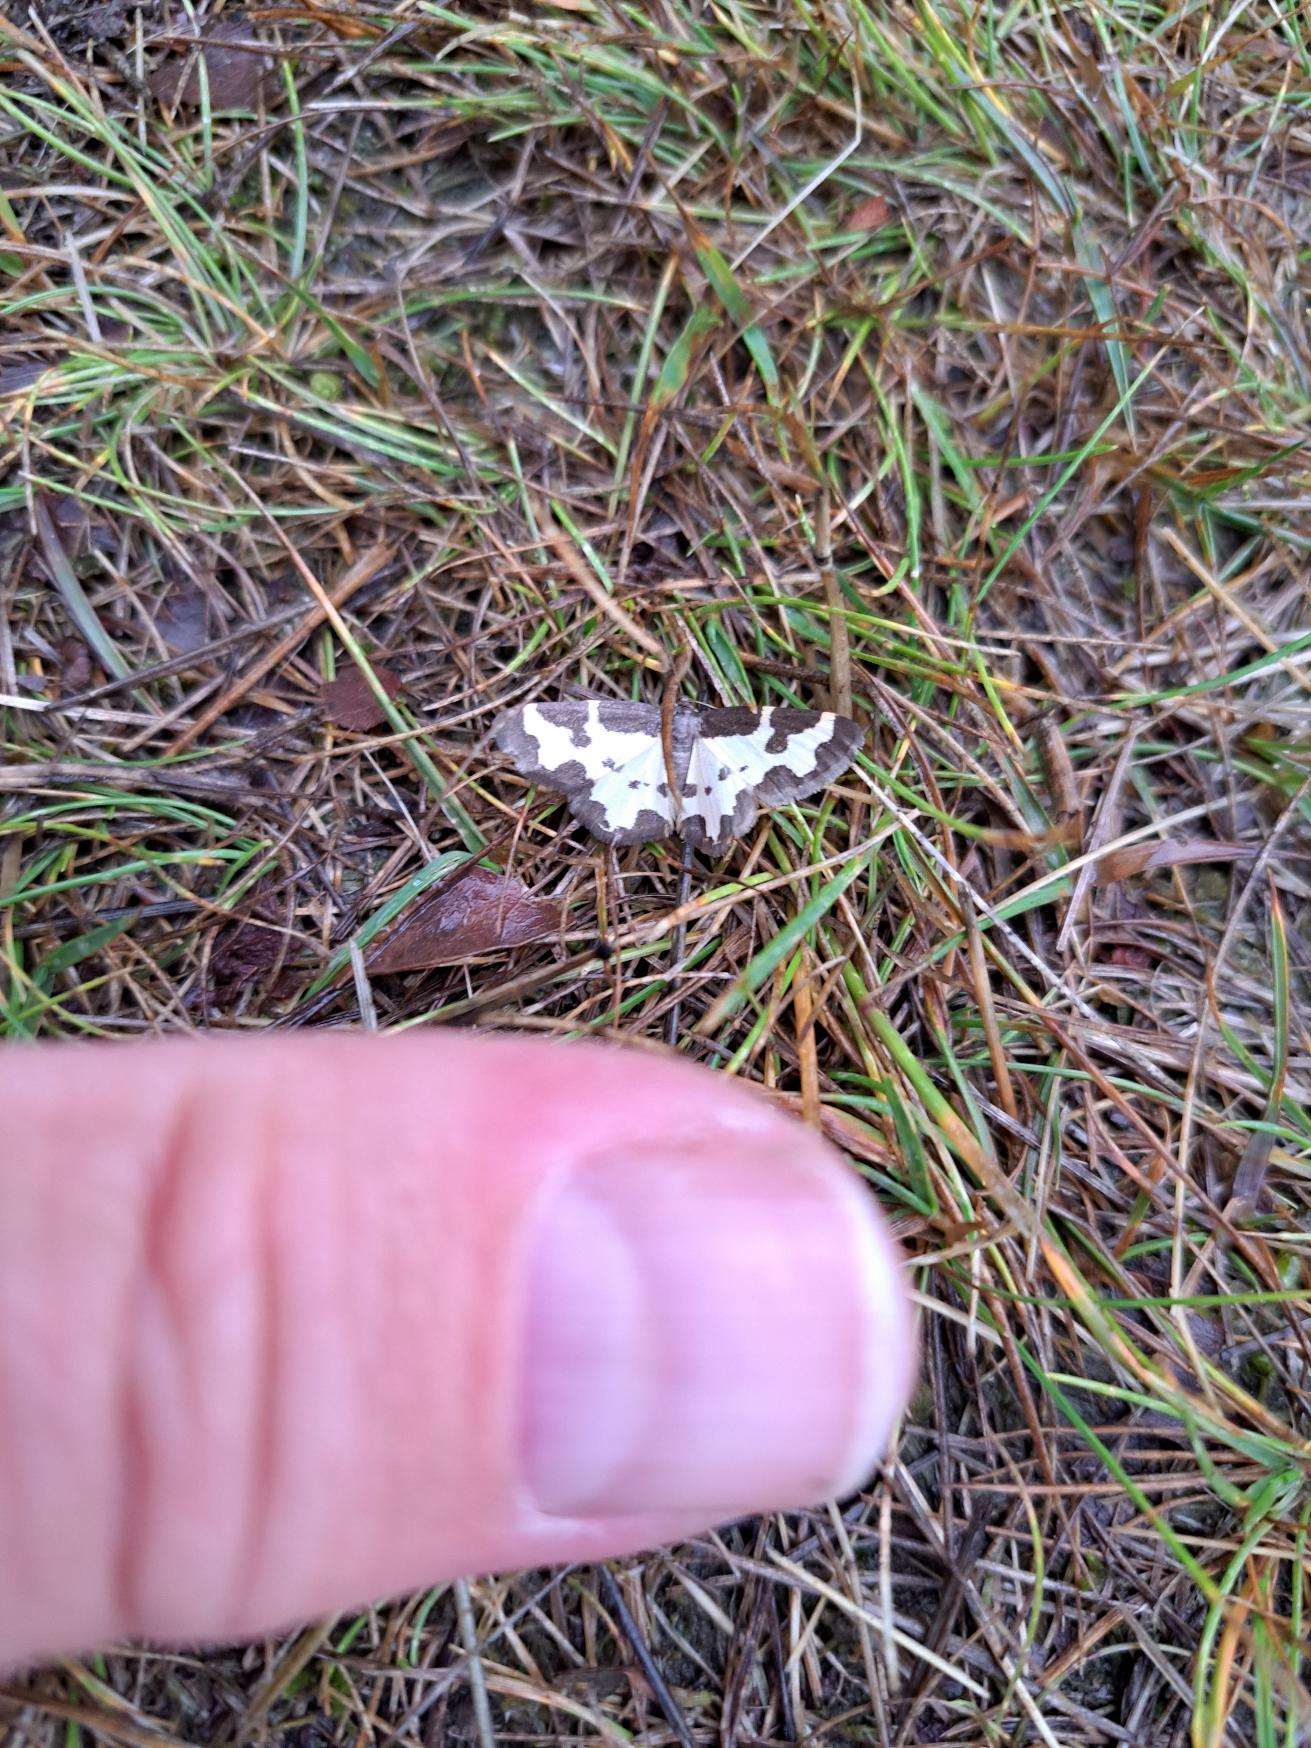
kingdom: Animalia
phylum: Arthropoda
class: Insecta
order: Lepidoptera
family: Geometridae
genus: Lomaspilis
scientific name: Lomaspilis marginata
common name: Sortrandet måler
